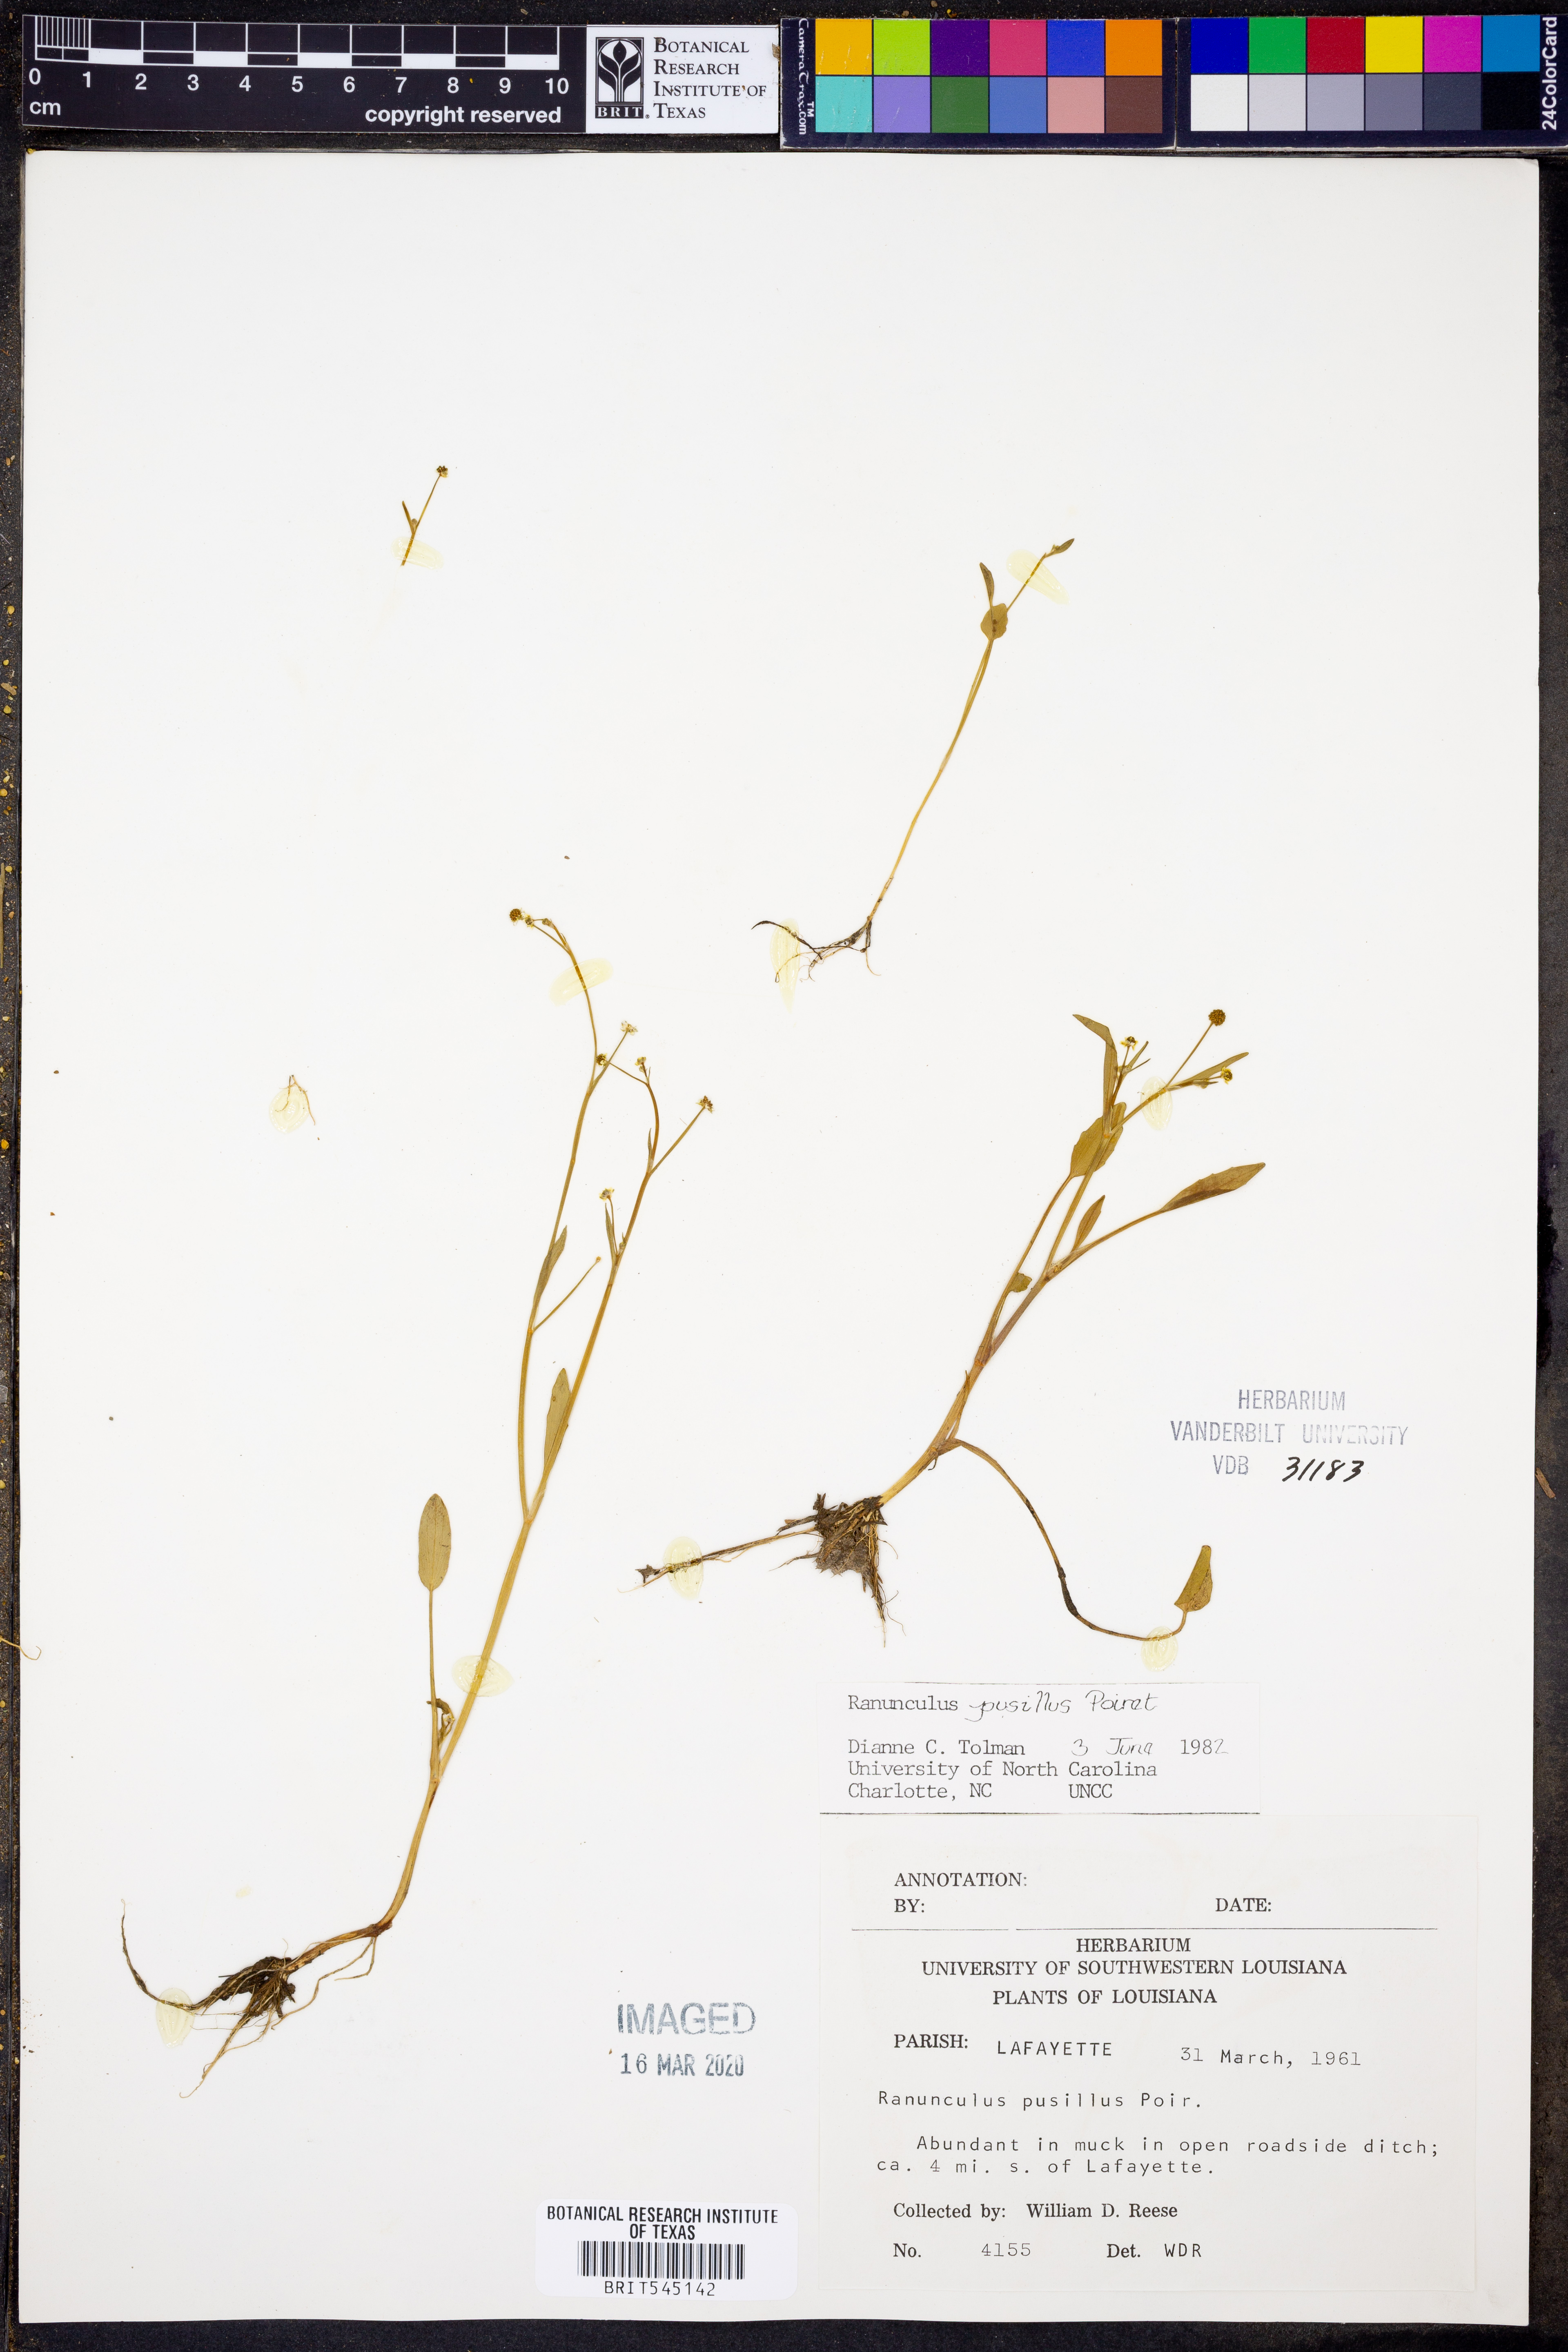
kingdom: Plantae
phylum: Tracheophyta
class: Magnoliopsida
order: Ranunculales
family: Ranunculaceae
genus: Ranunculus
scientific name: Ranunculus pusillus
